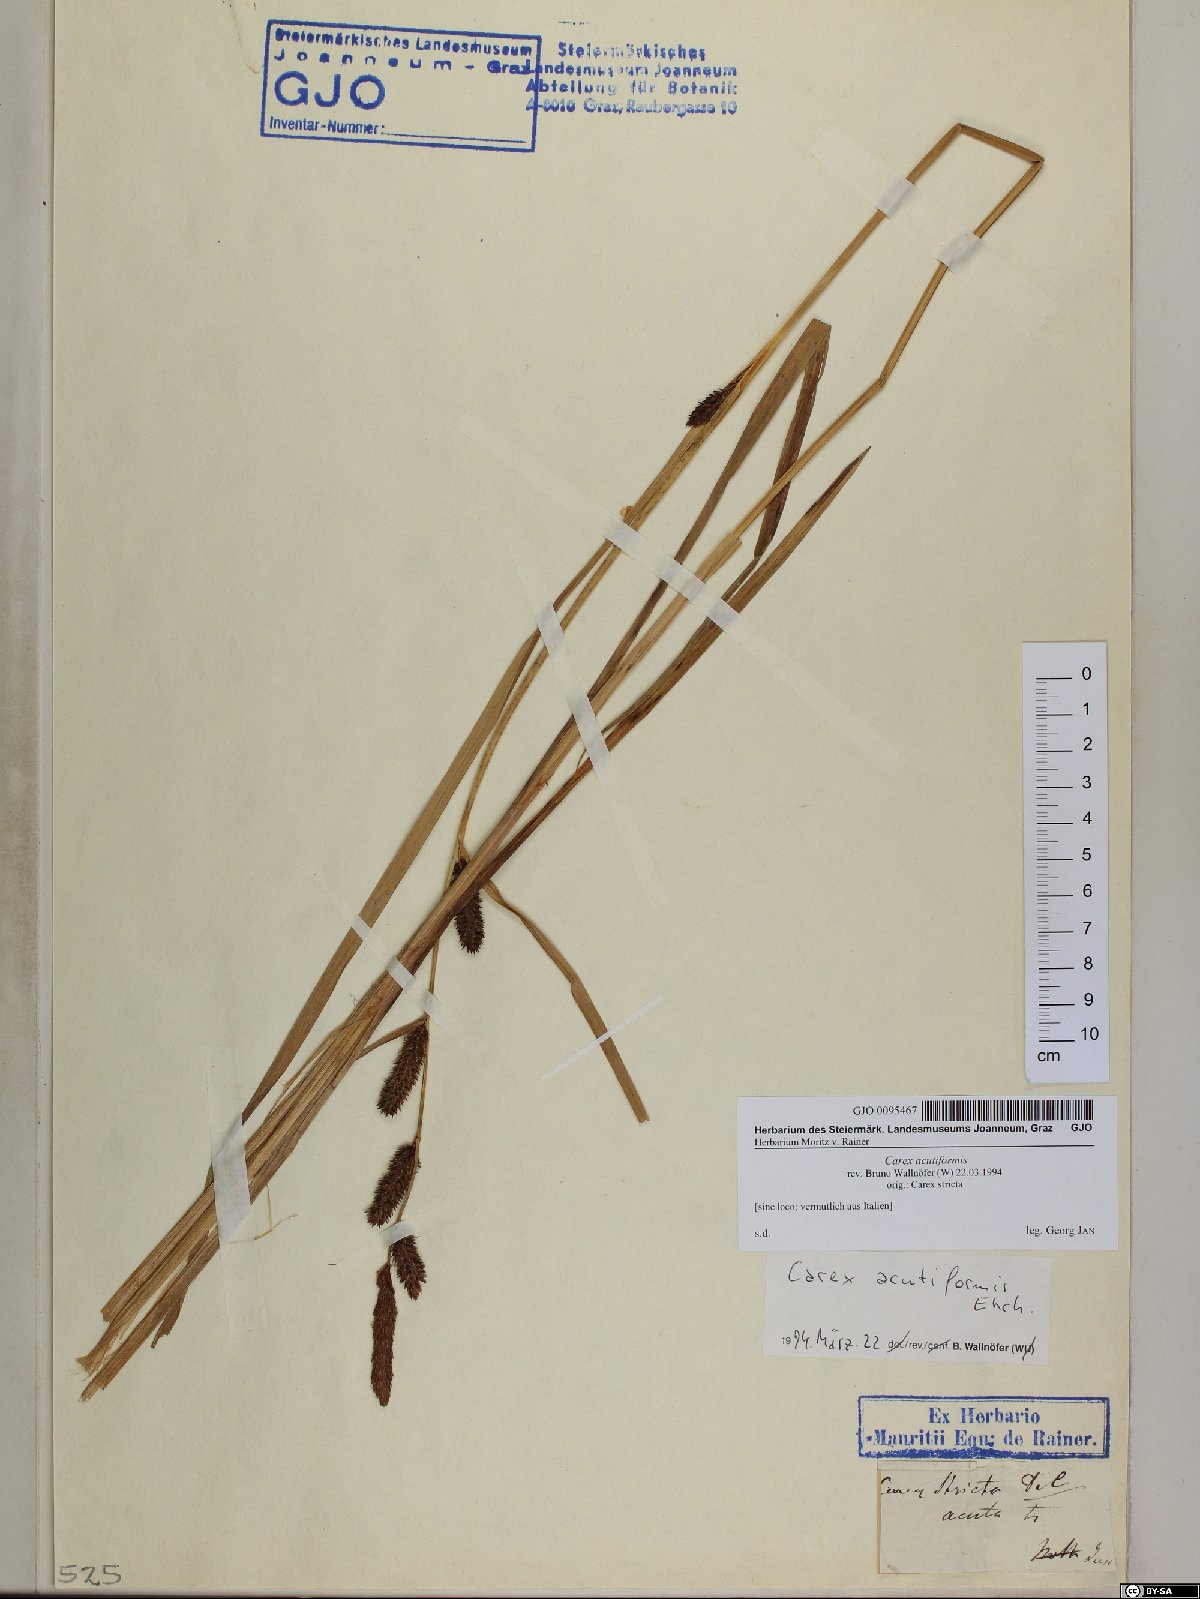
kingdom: Plantae
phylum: Tracheophyta
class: Liliopsida
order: Poales
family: Cyperaceae
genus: Carex
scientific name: Carex acutiformis
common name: Lesser pond-sedge
